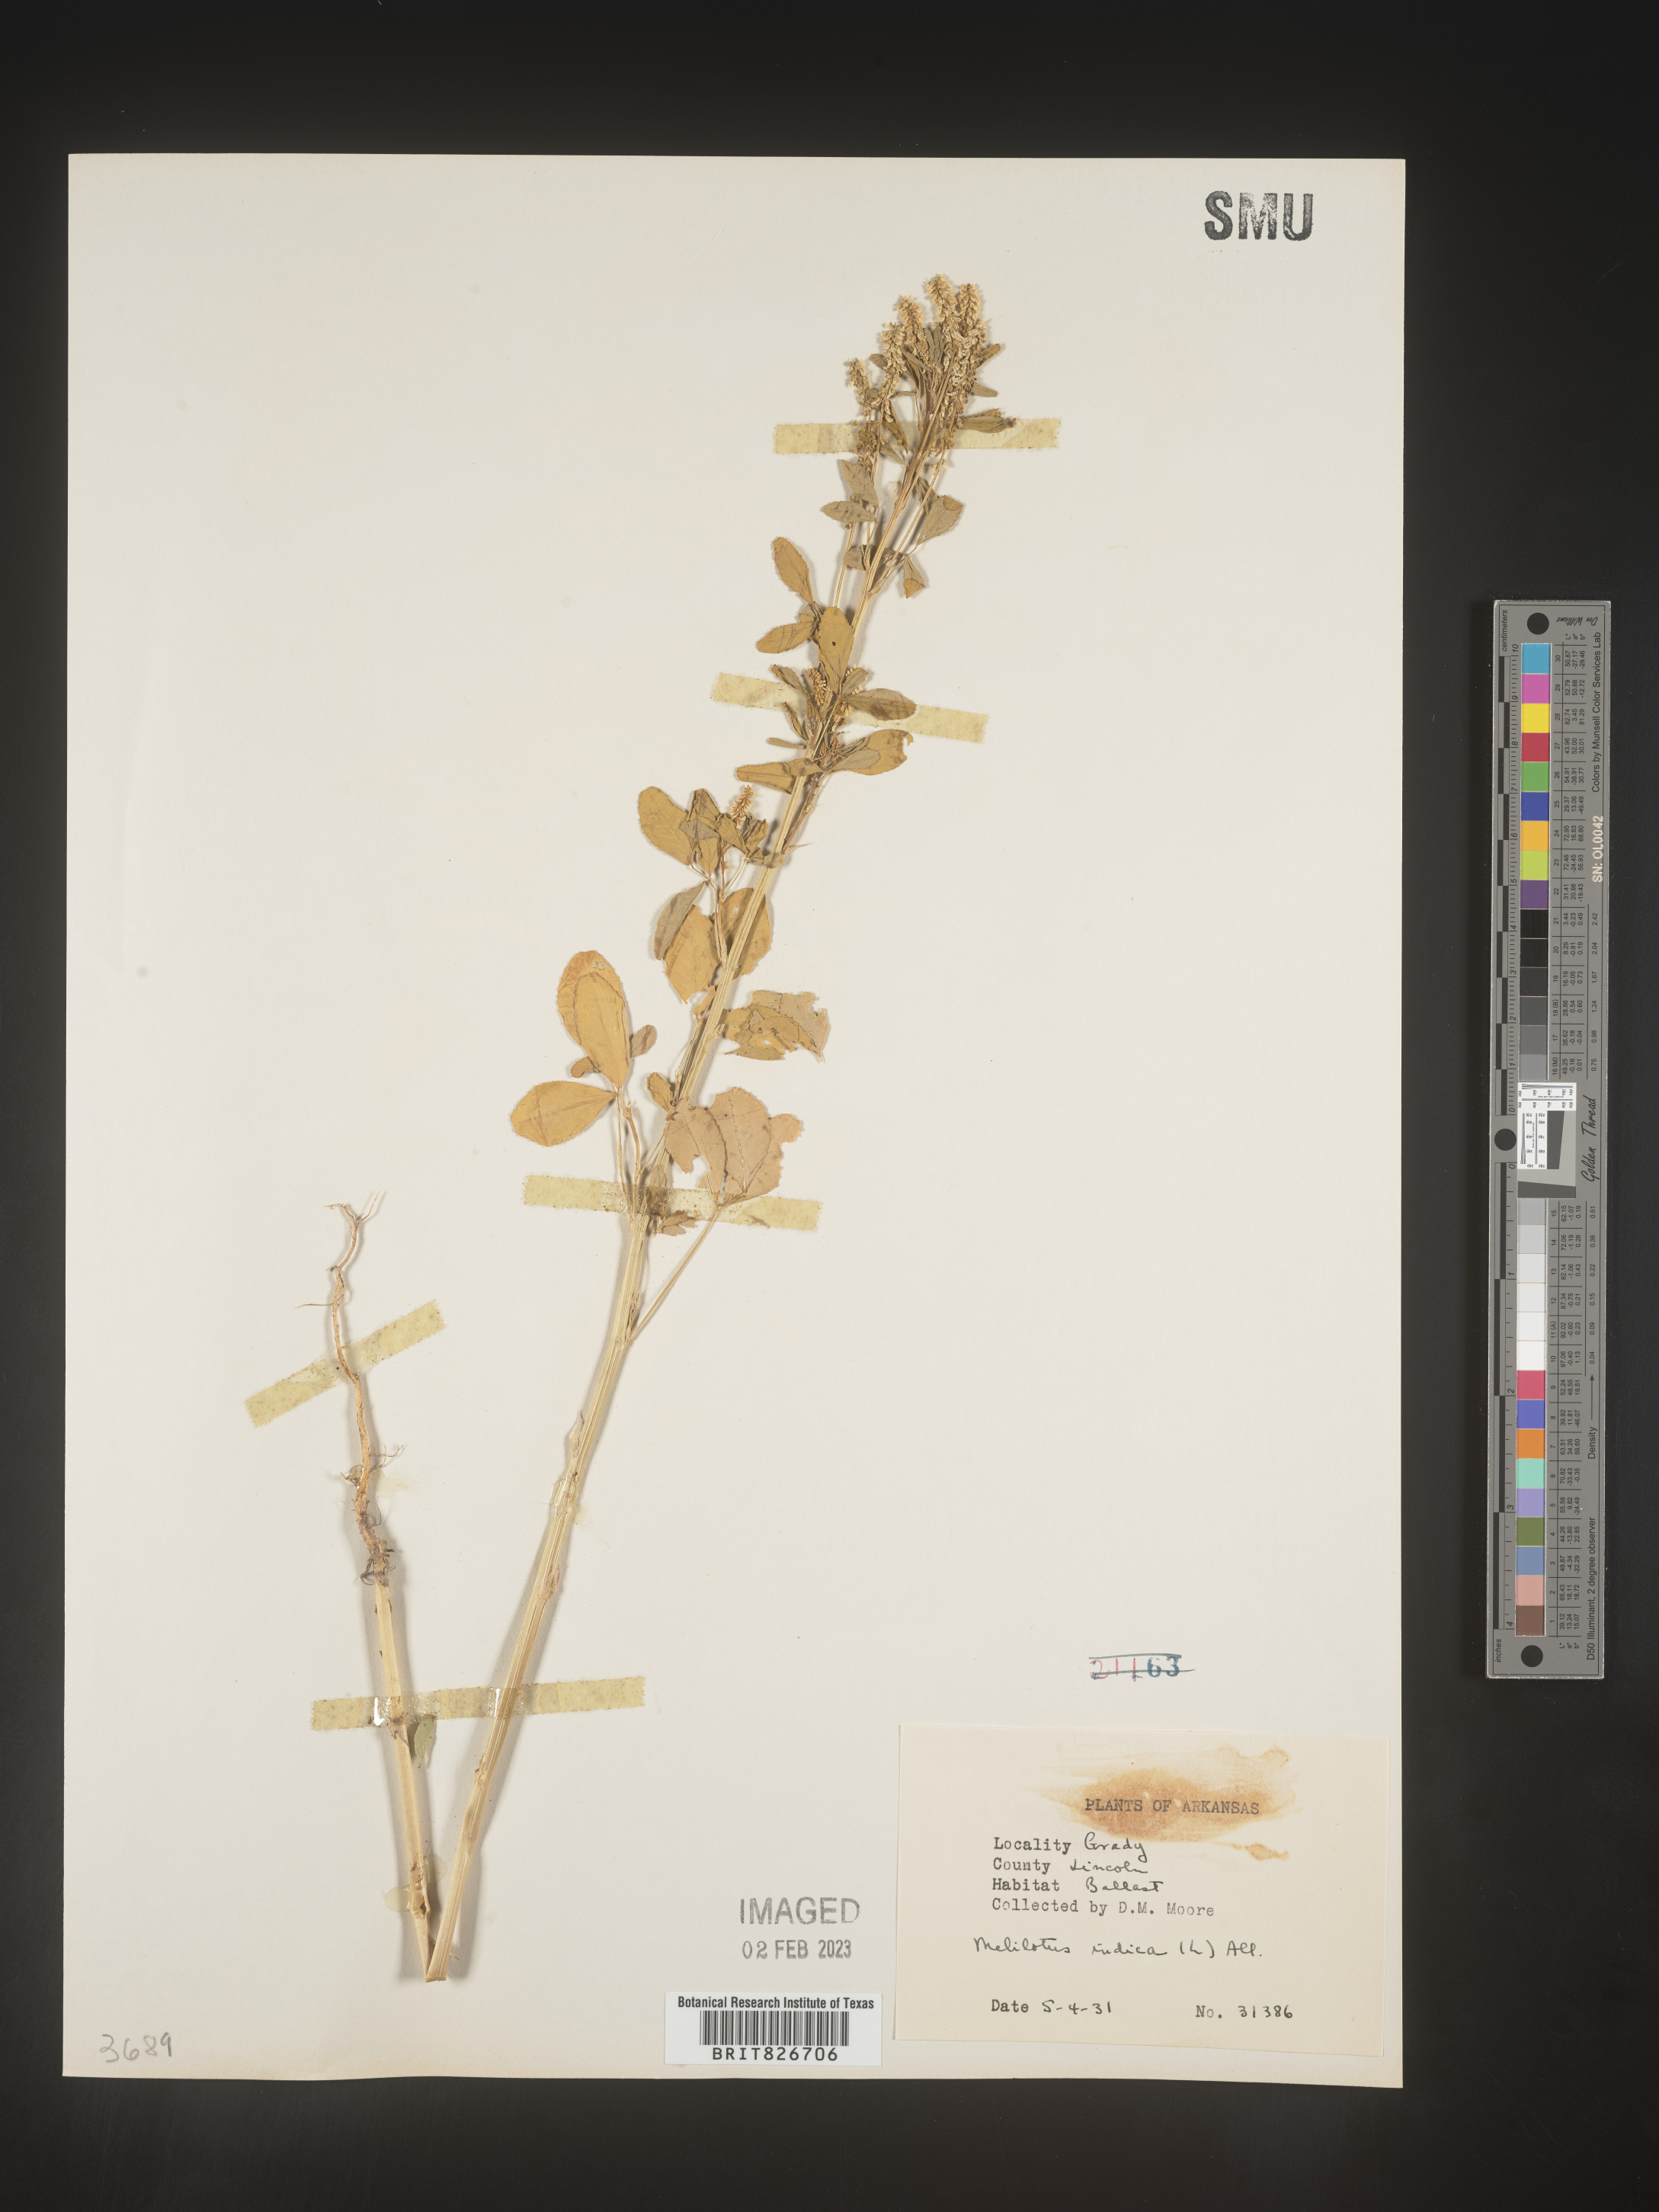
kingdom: Plantae
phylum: Tracheophyta
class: Magnoliopsida
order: Fabales
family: Fabaceae
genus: Melilotus
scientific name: Melilotus indicus
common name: Small melilot
